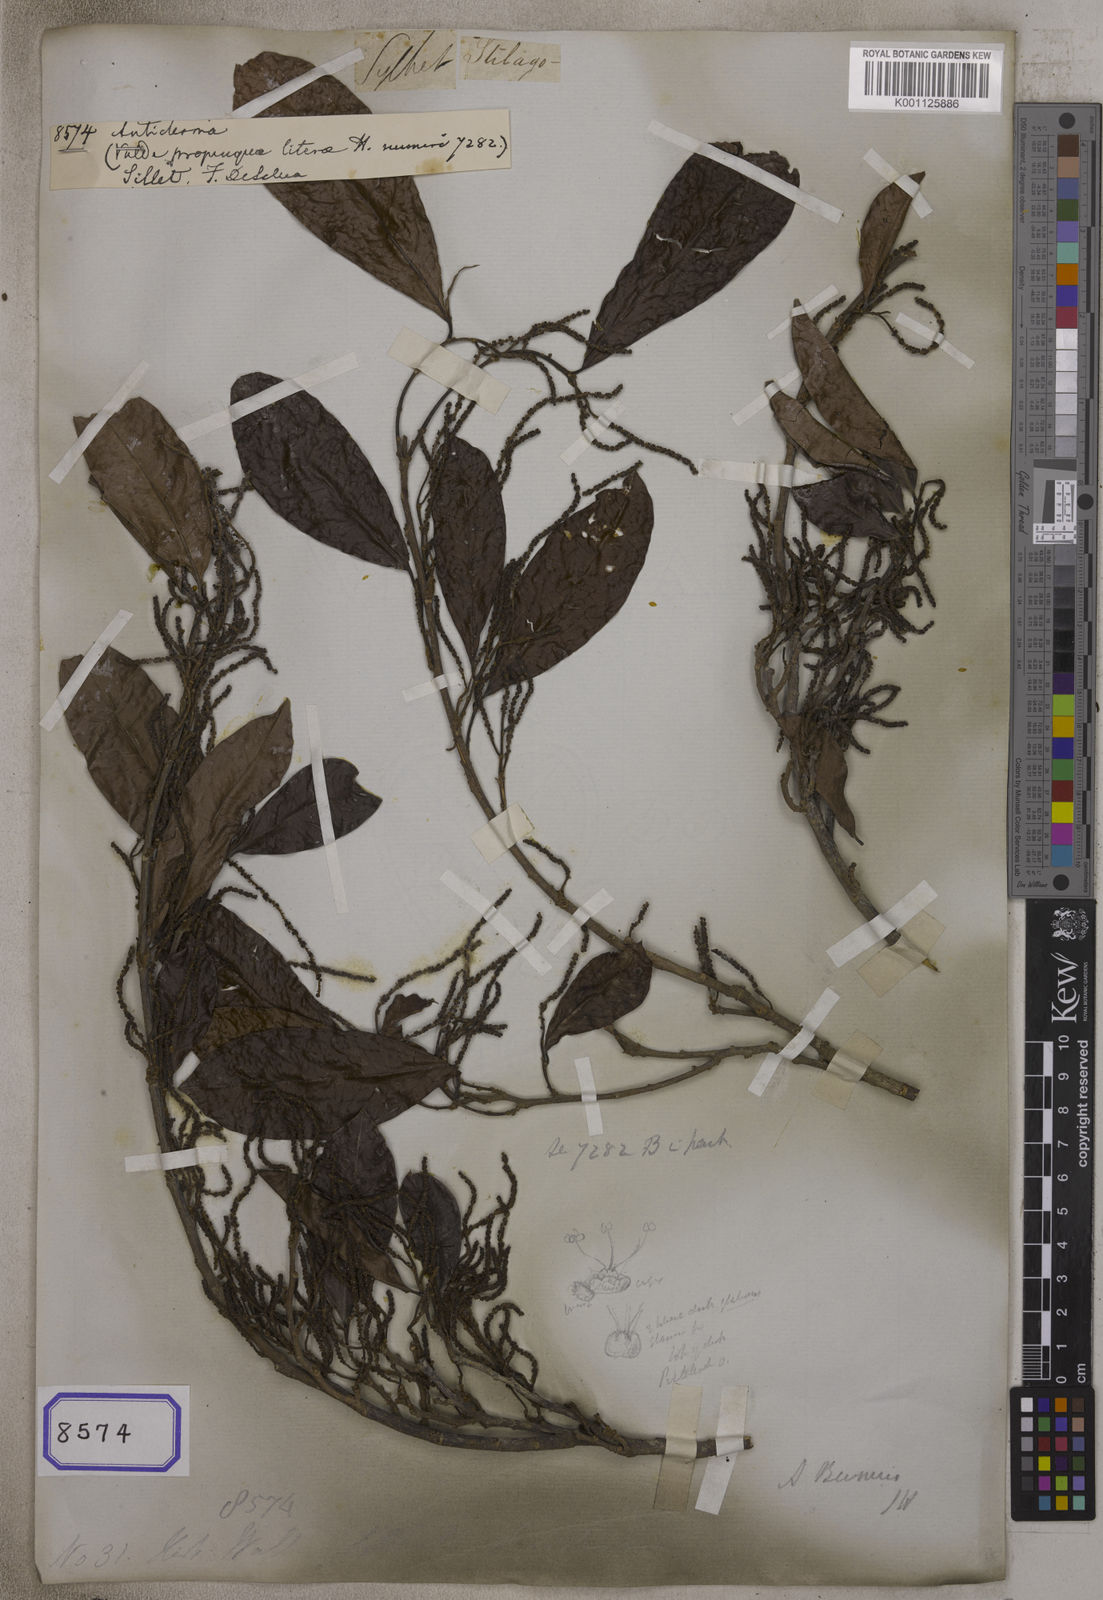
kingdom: Plantae
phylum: Tracheophyta
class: Magnoliopsida
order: Malpighiales
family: Phyllanthaceae
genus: Antidesma
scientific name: Antidesma
